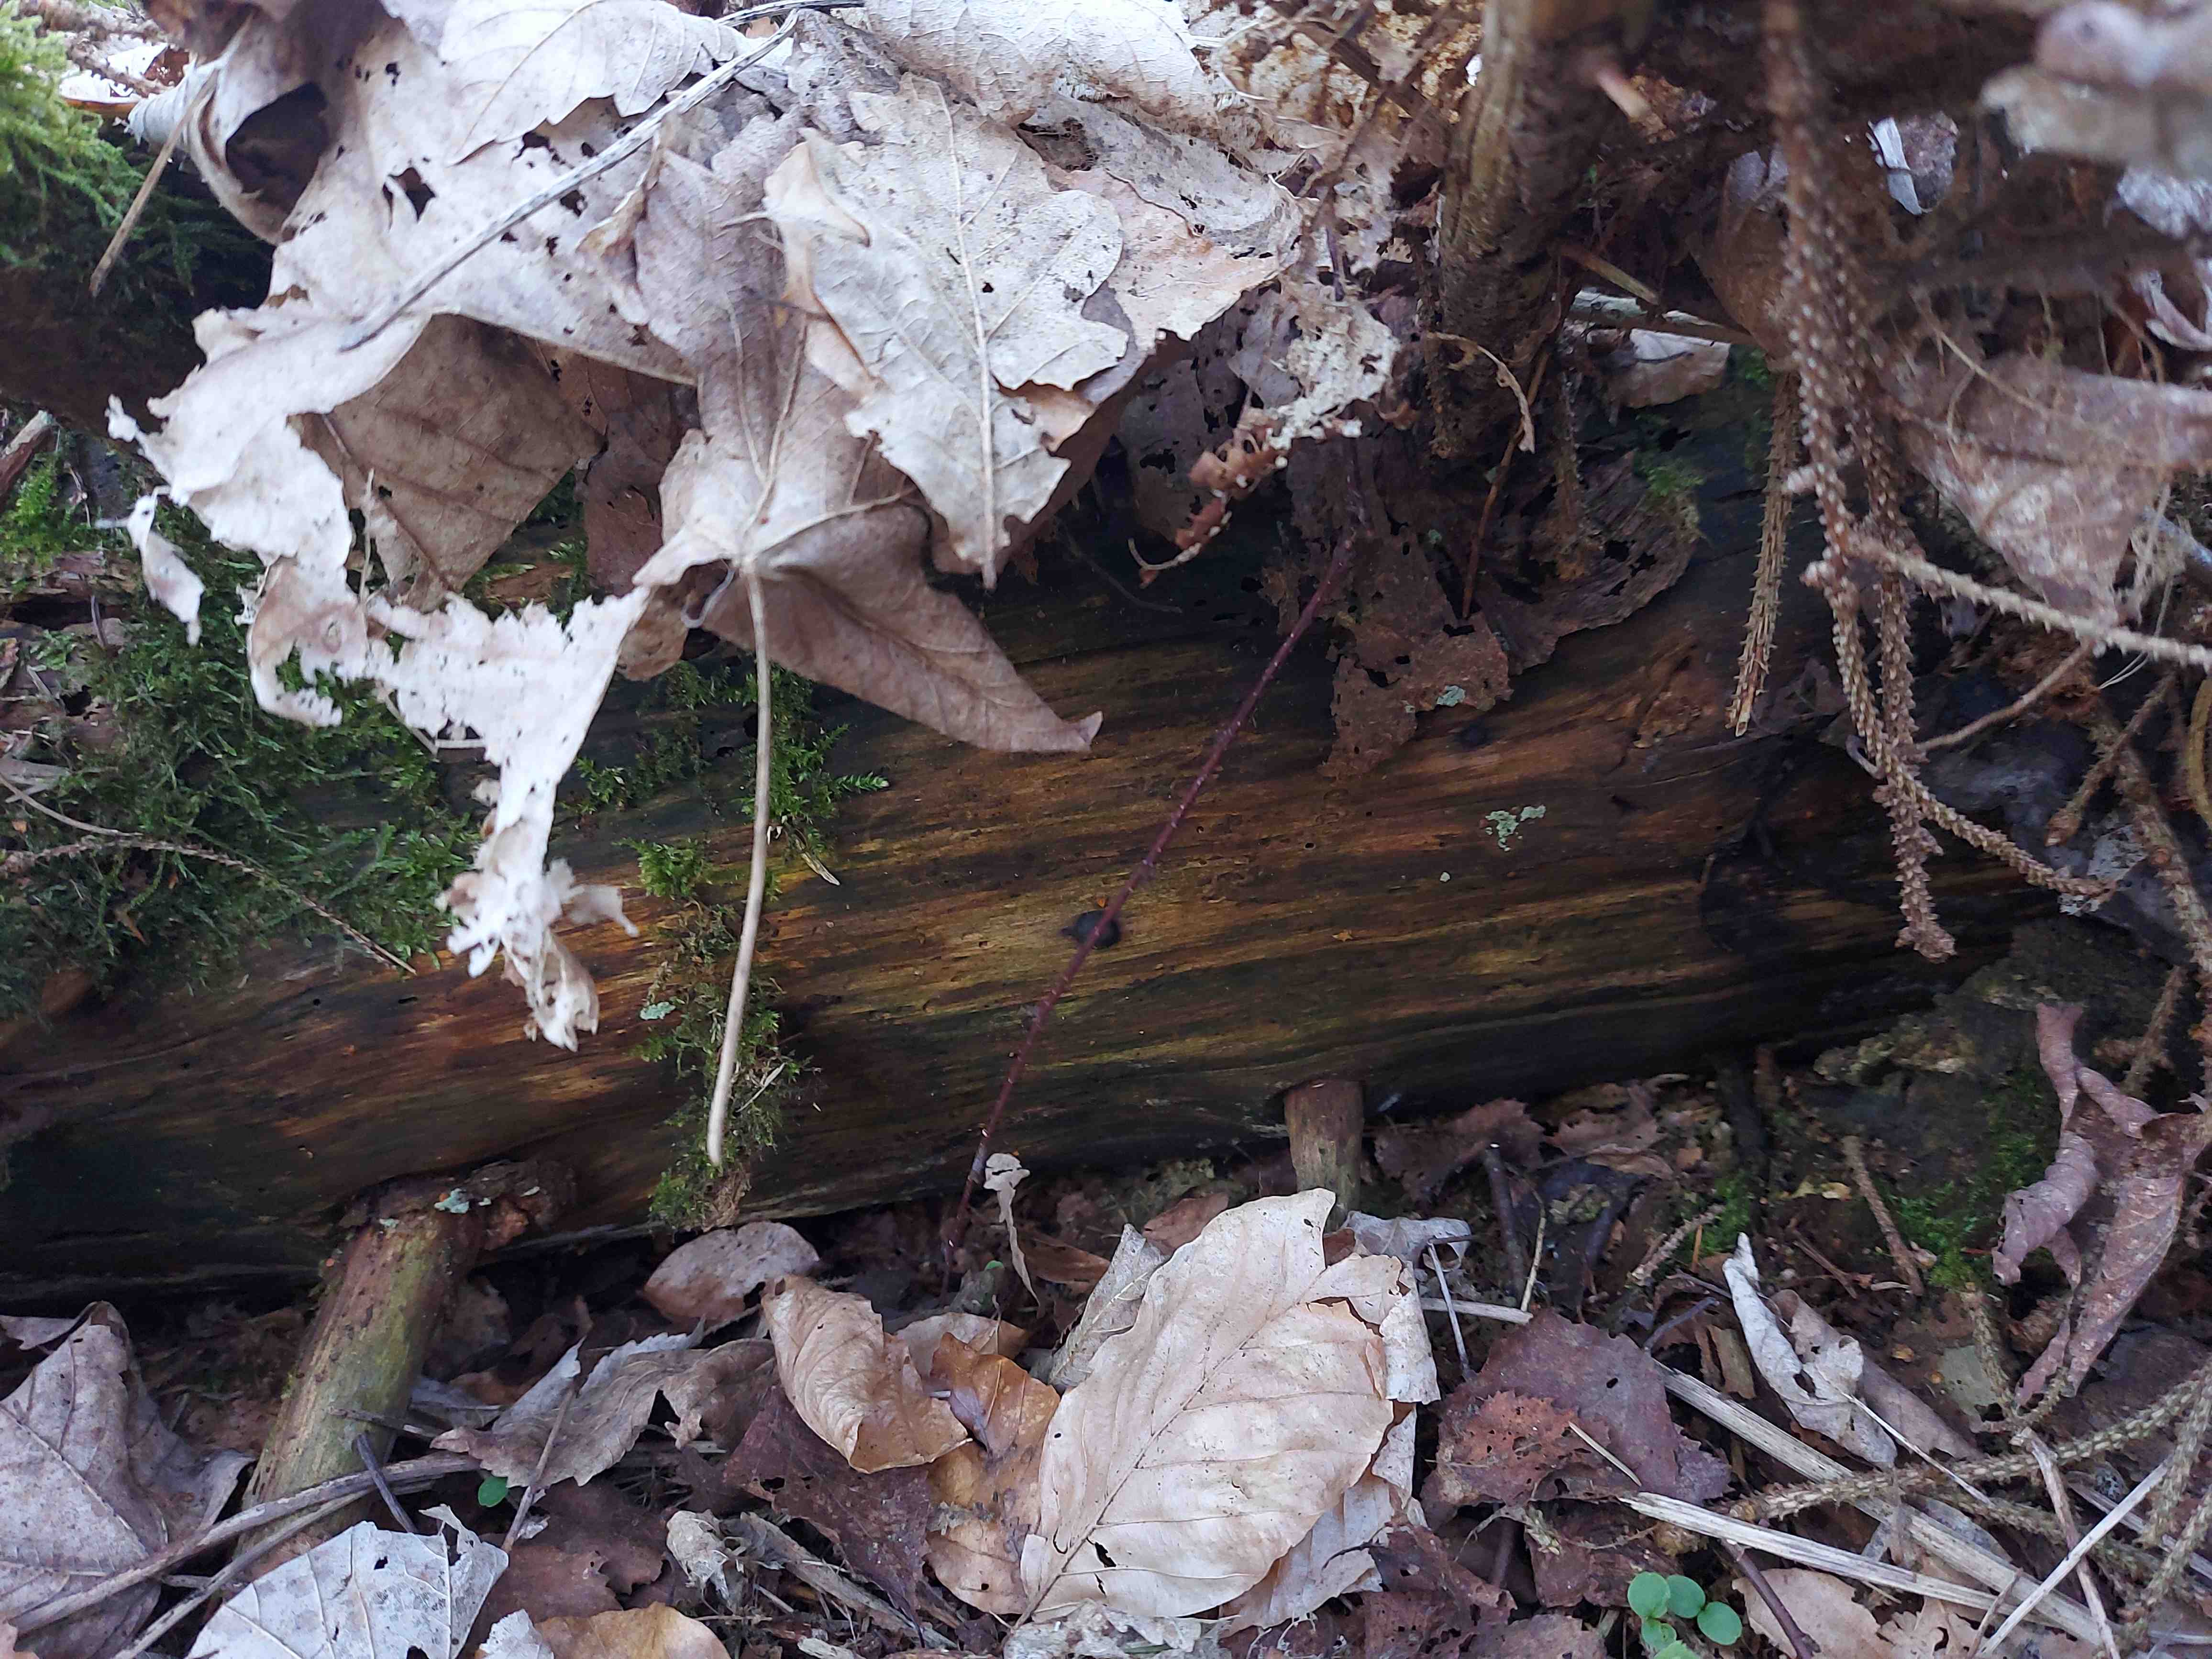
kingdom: Fungi
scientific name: Fungi
